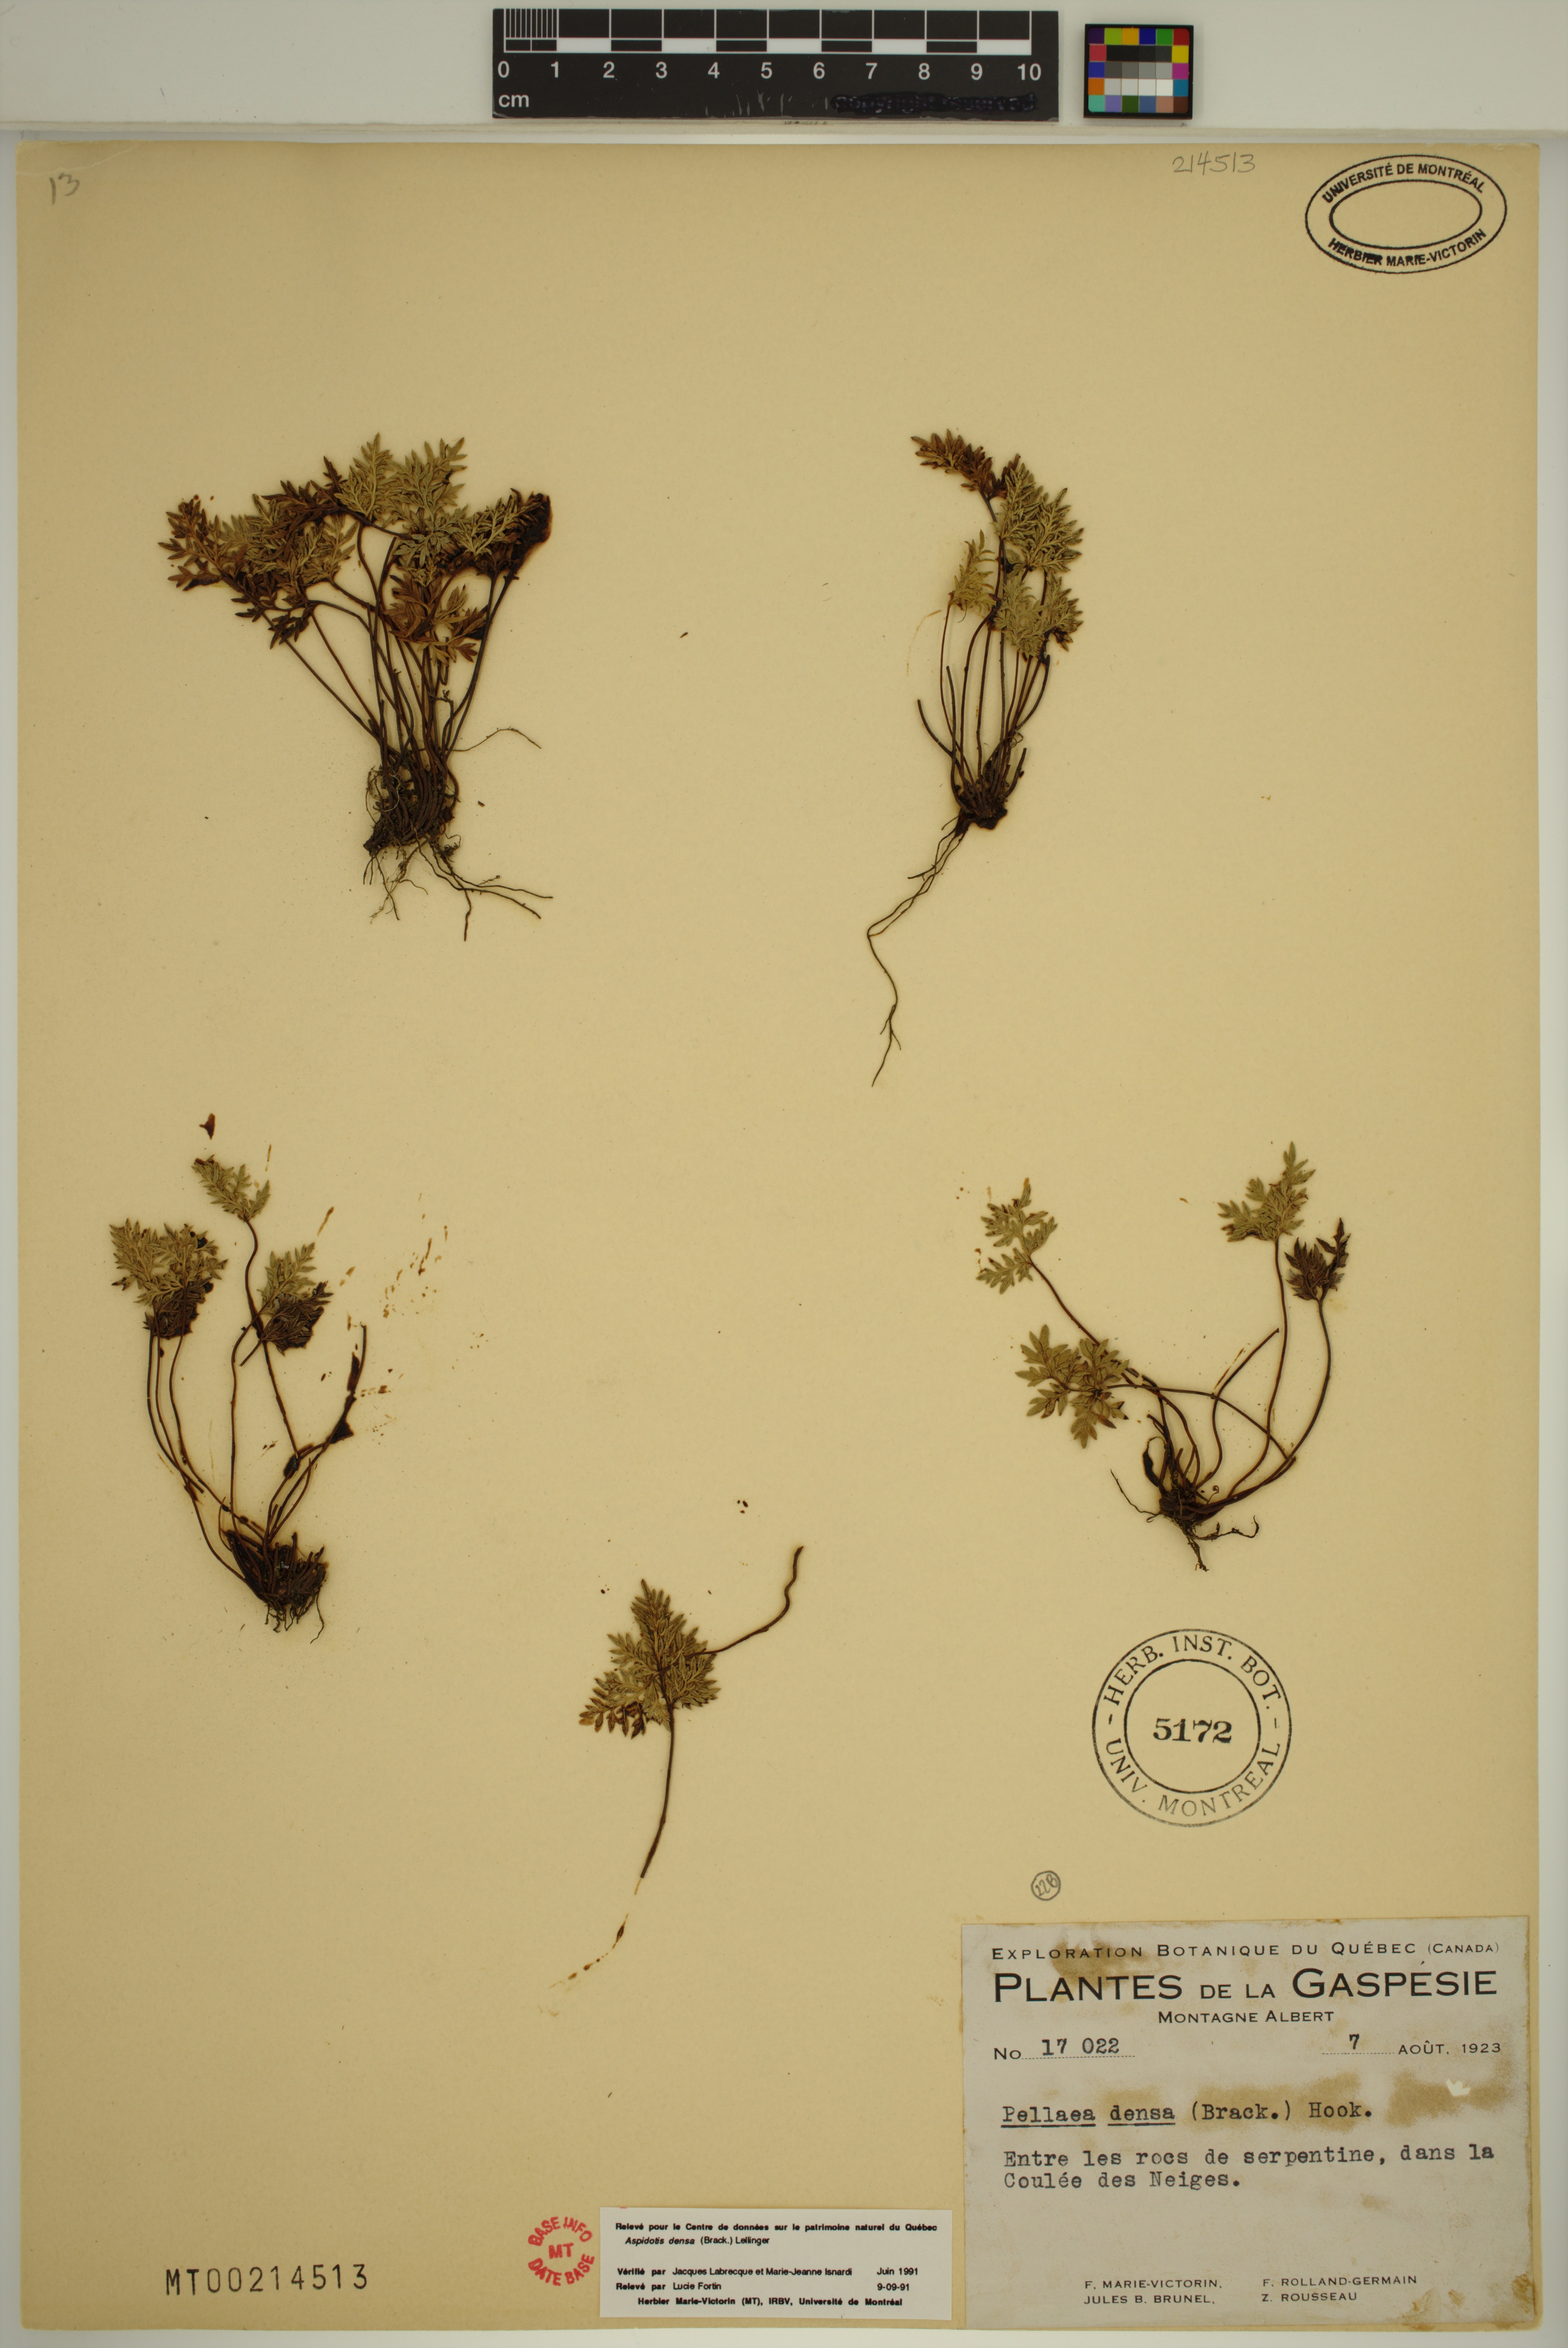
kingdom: Plantae
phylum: Tracheophyta
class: Polypodiopsida
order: Polypodiales
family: Pteridaceae
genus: Aspidotis
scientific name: Aspidotis densa
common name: Indian's dream
